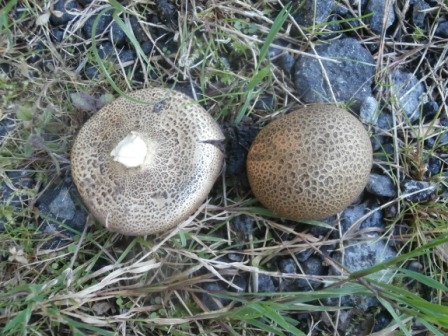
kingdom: Fungi
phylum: Basidiomycota
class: Agaricomycetes
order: Boletales
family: Sclerodermataceae
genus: Scleroderma
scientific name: Scleroderma areolatum
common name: plettet bruskbold
